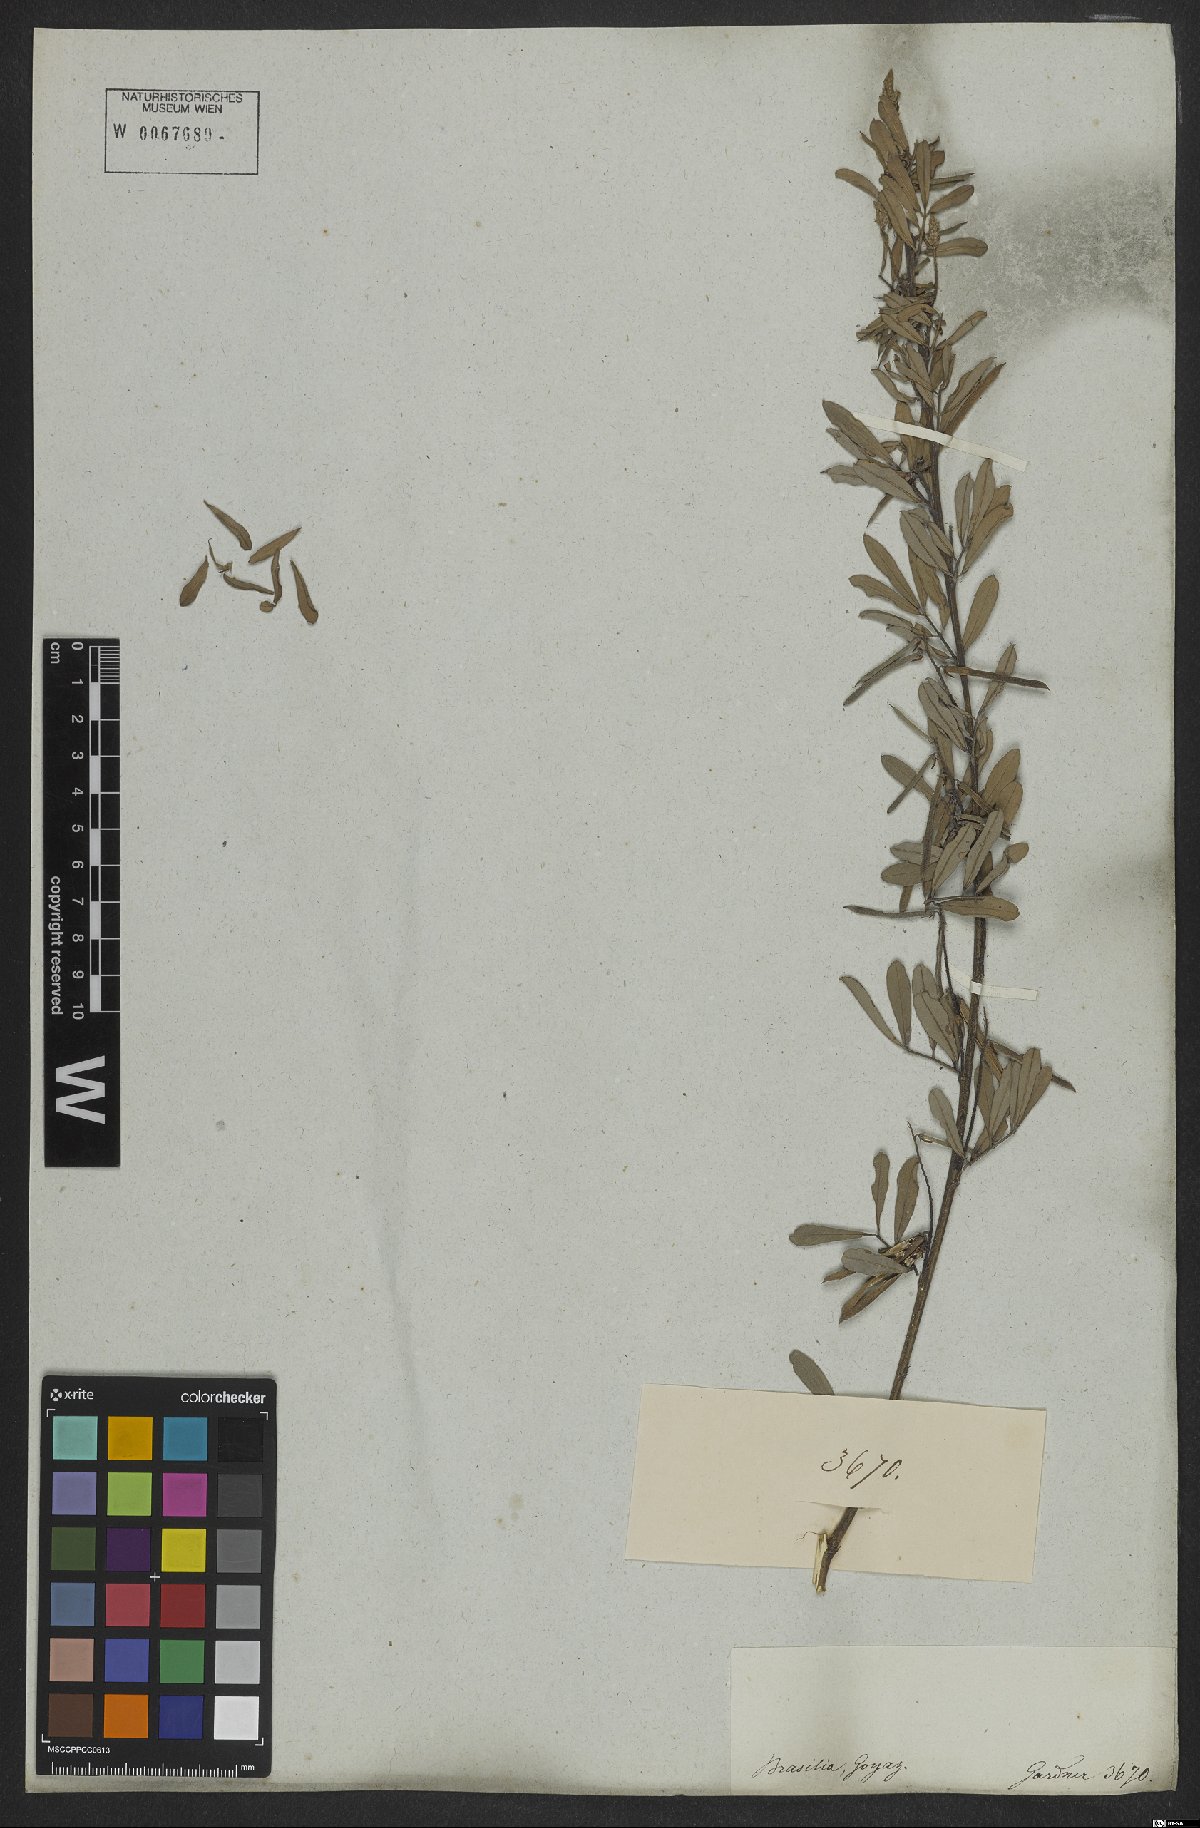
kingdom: Plantae
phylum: Tracheophyta
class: Magnoliopsida
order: Fabales
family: Fabaceae
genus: Indigofera
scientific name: Indigofera lespedezioides
